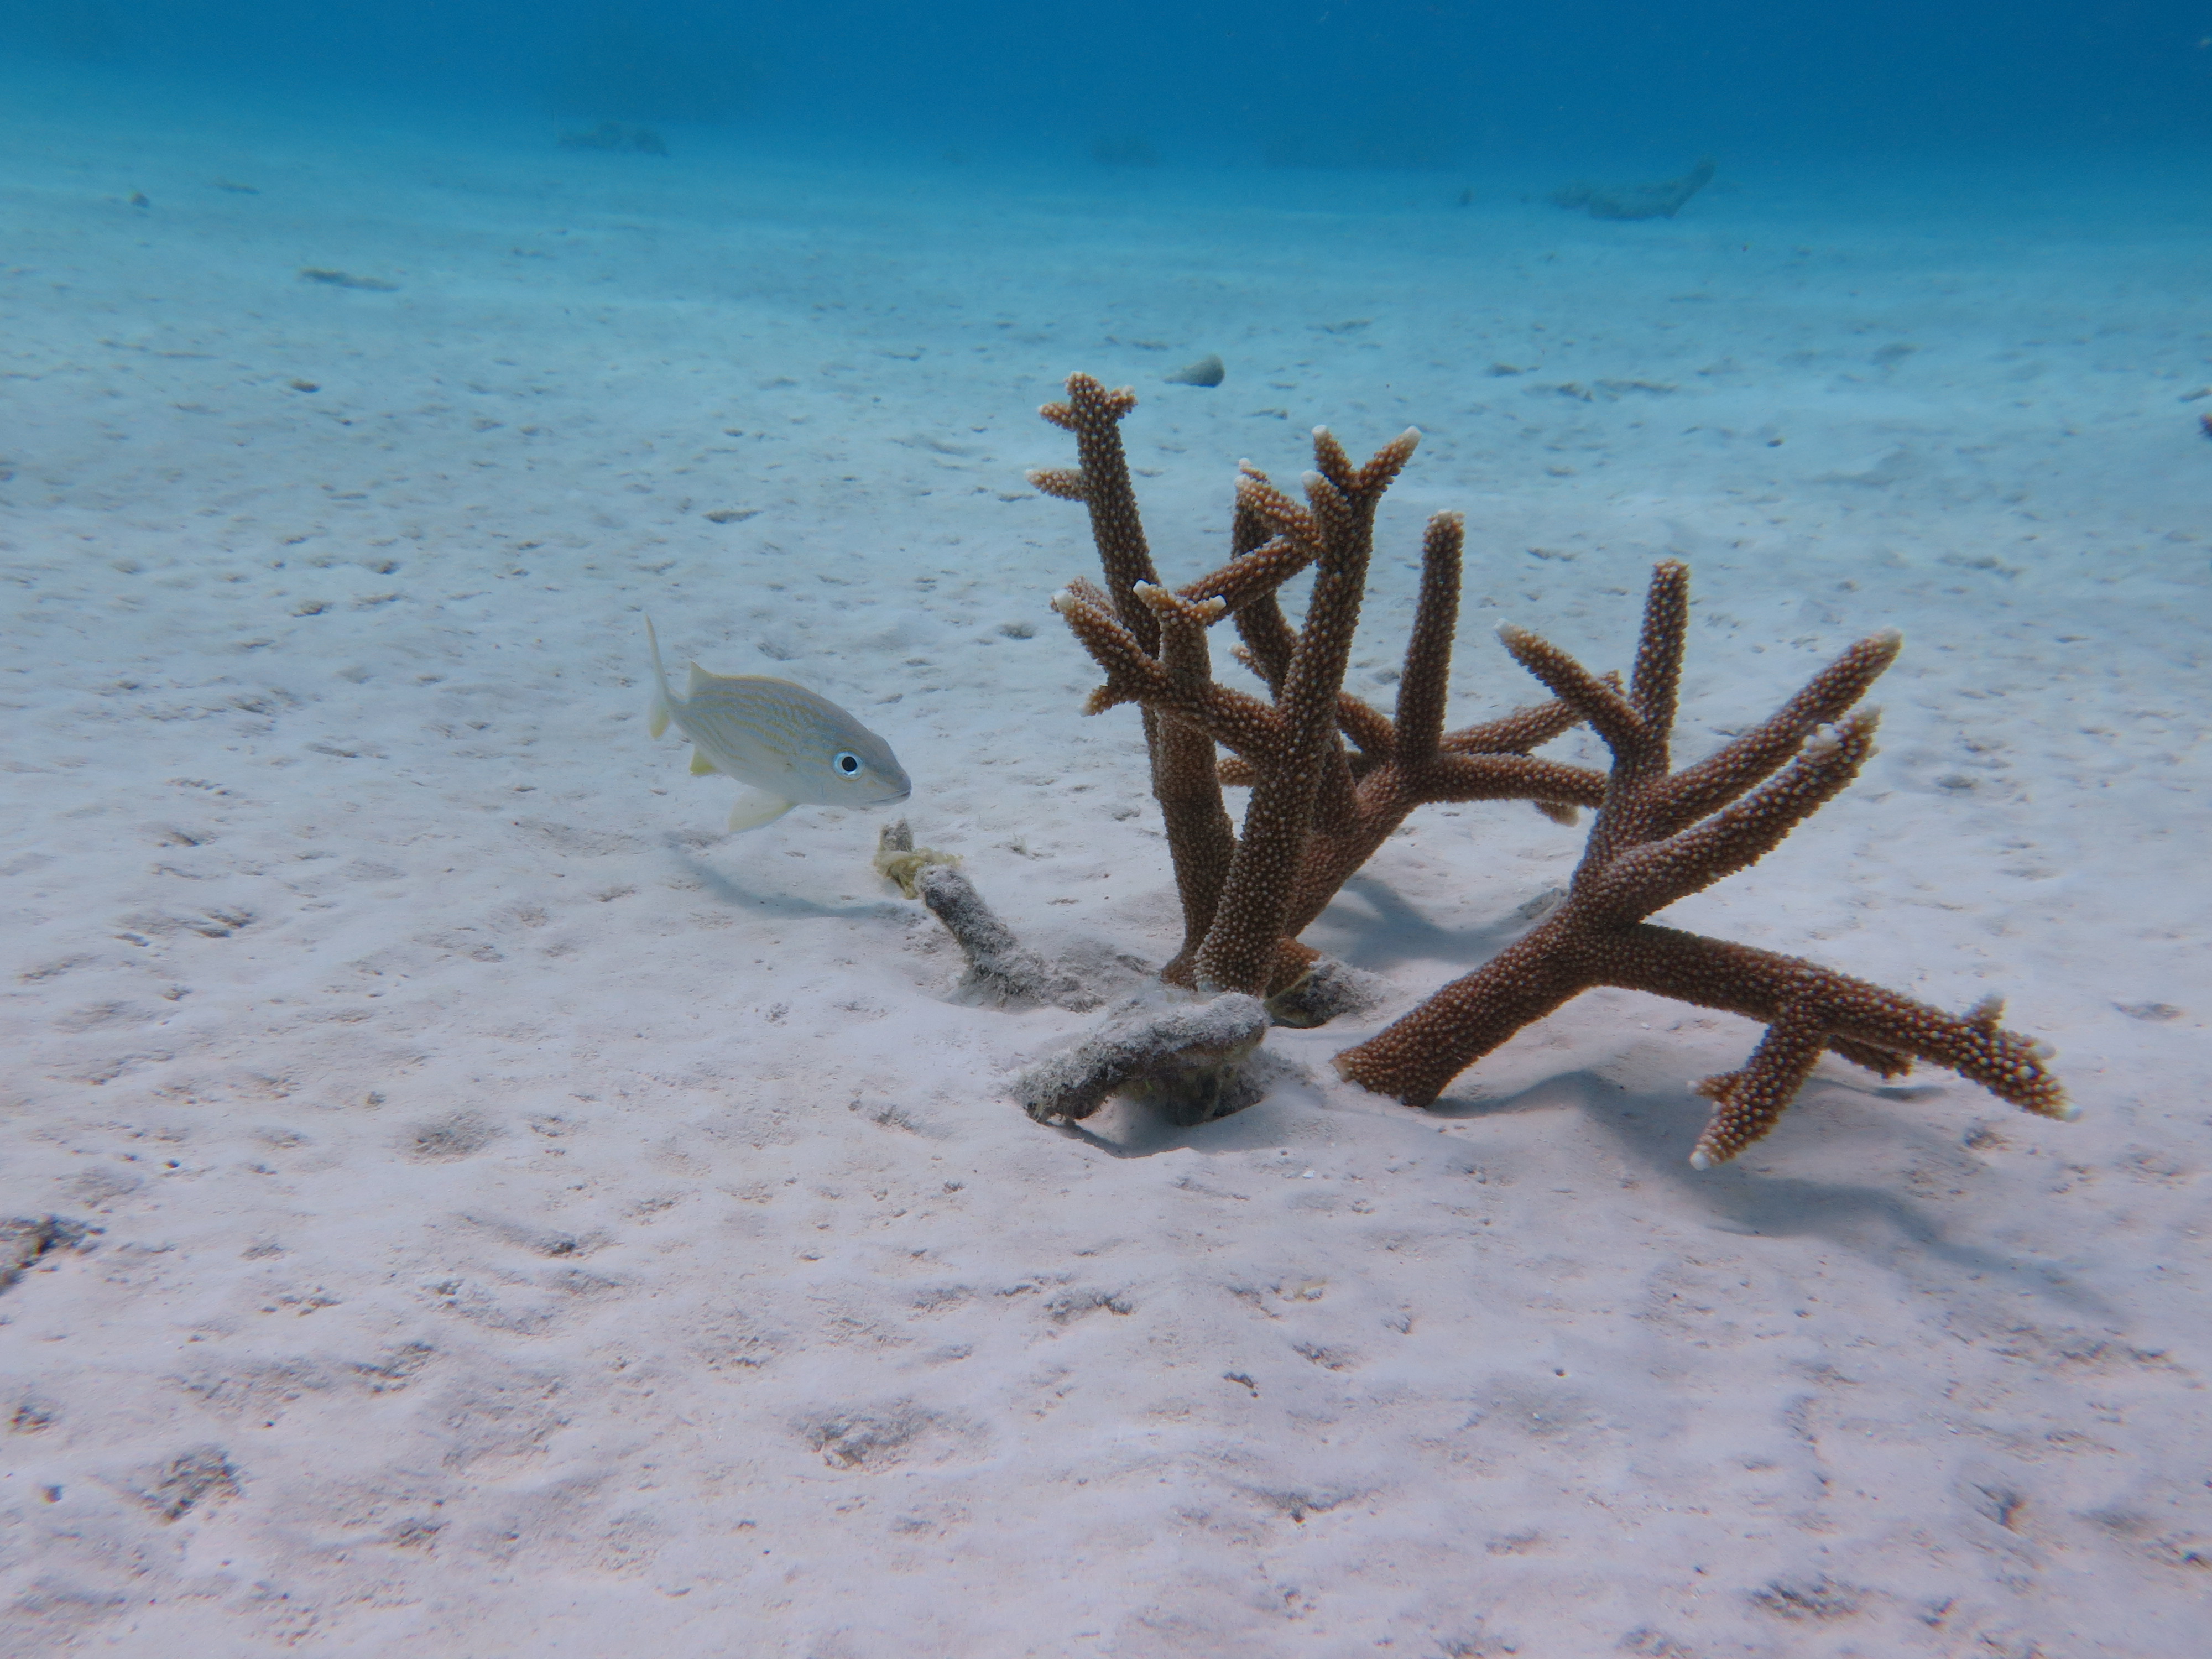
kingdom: Animalia
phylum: Cnidaria
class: Anthozoa
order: Scleractinia
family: Acroporidae
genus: Acropora
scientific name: Acropora cervicornis
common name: Staghorn coral
